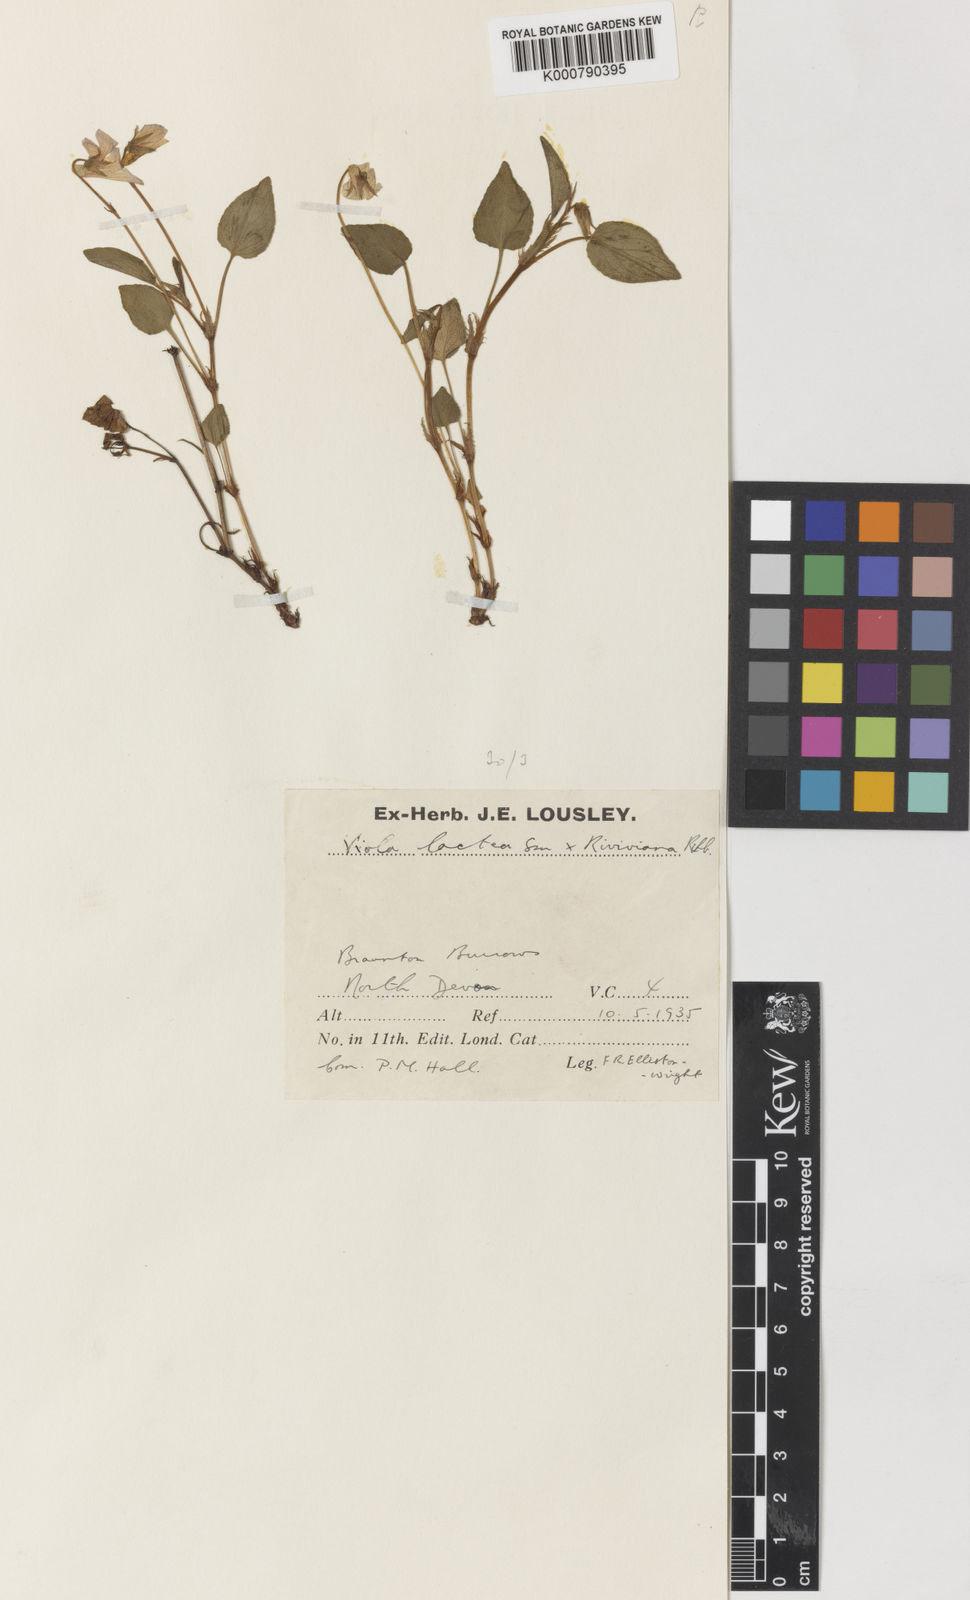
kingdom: Plantae
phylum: Tracheophyta
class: Magnoliopsida
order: Malpighiales
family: Violaceae
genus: Viola
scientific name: Viola lactea
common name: Pale dog-violet
